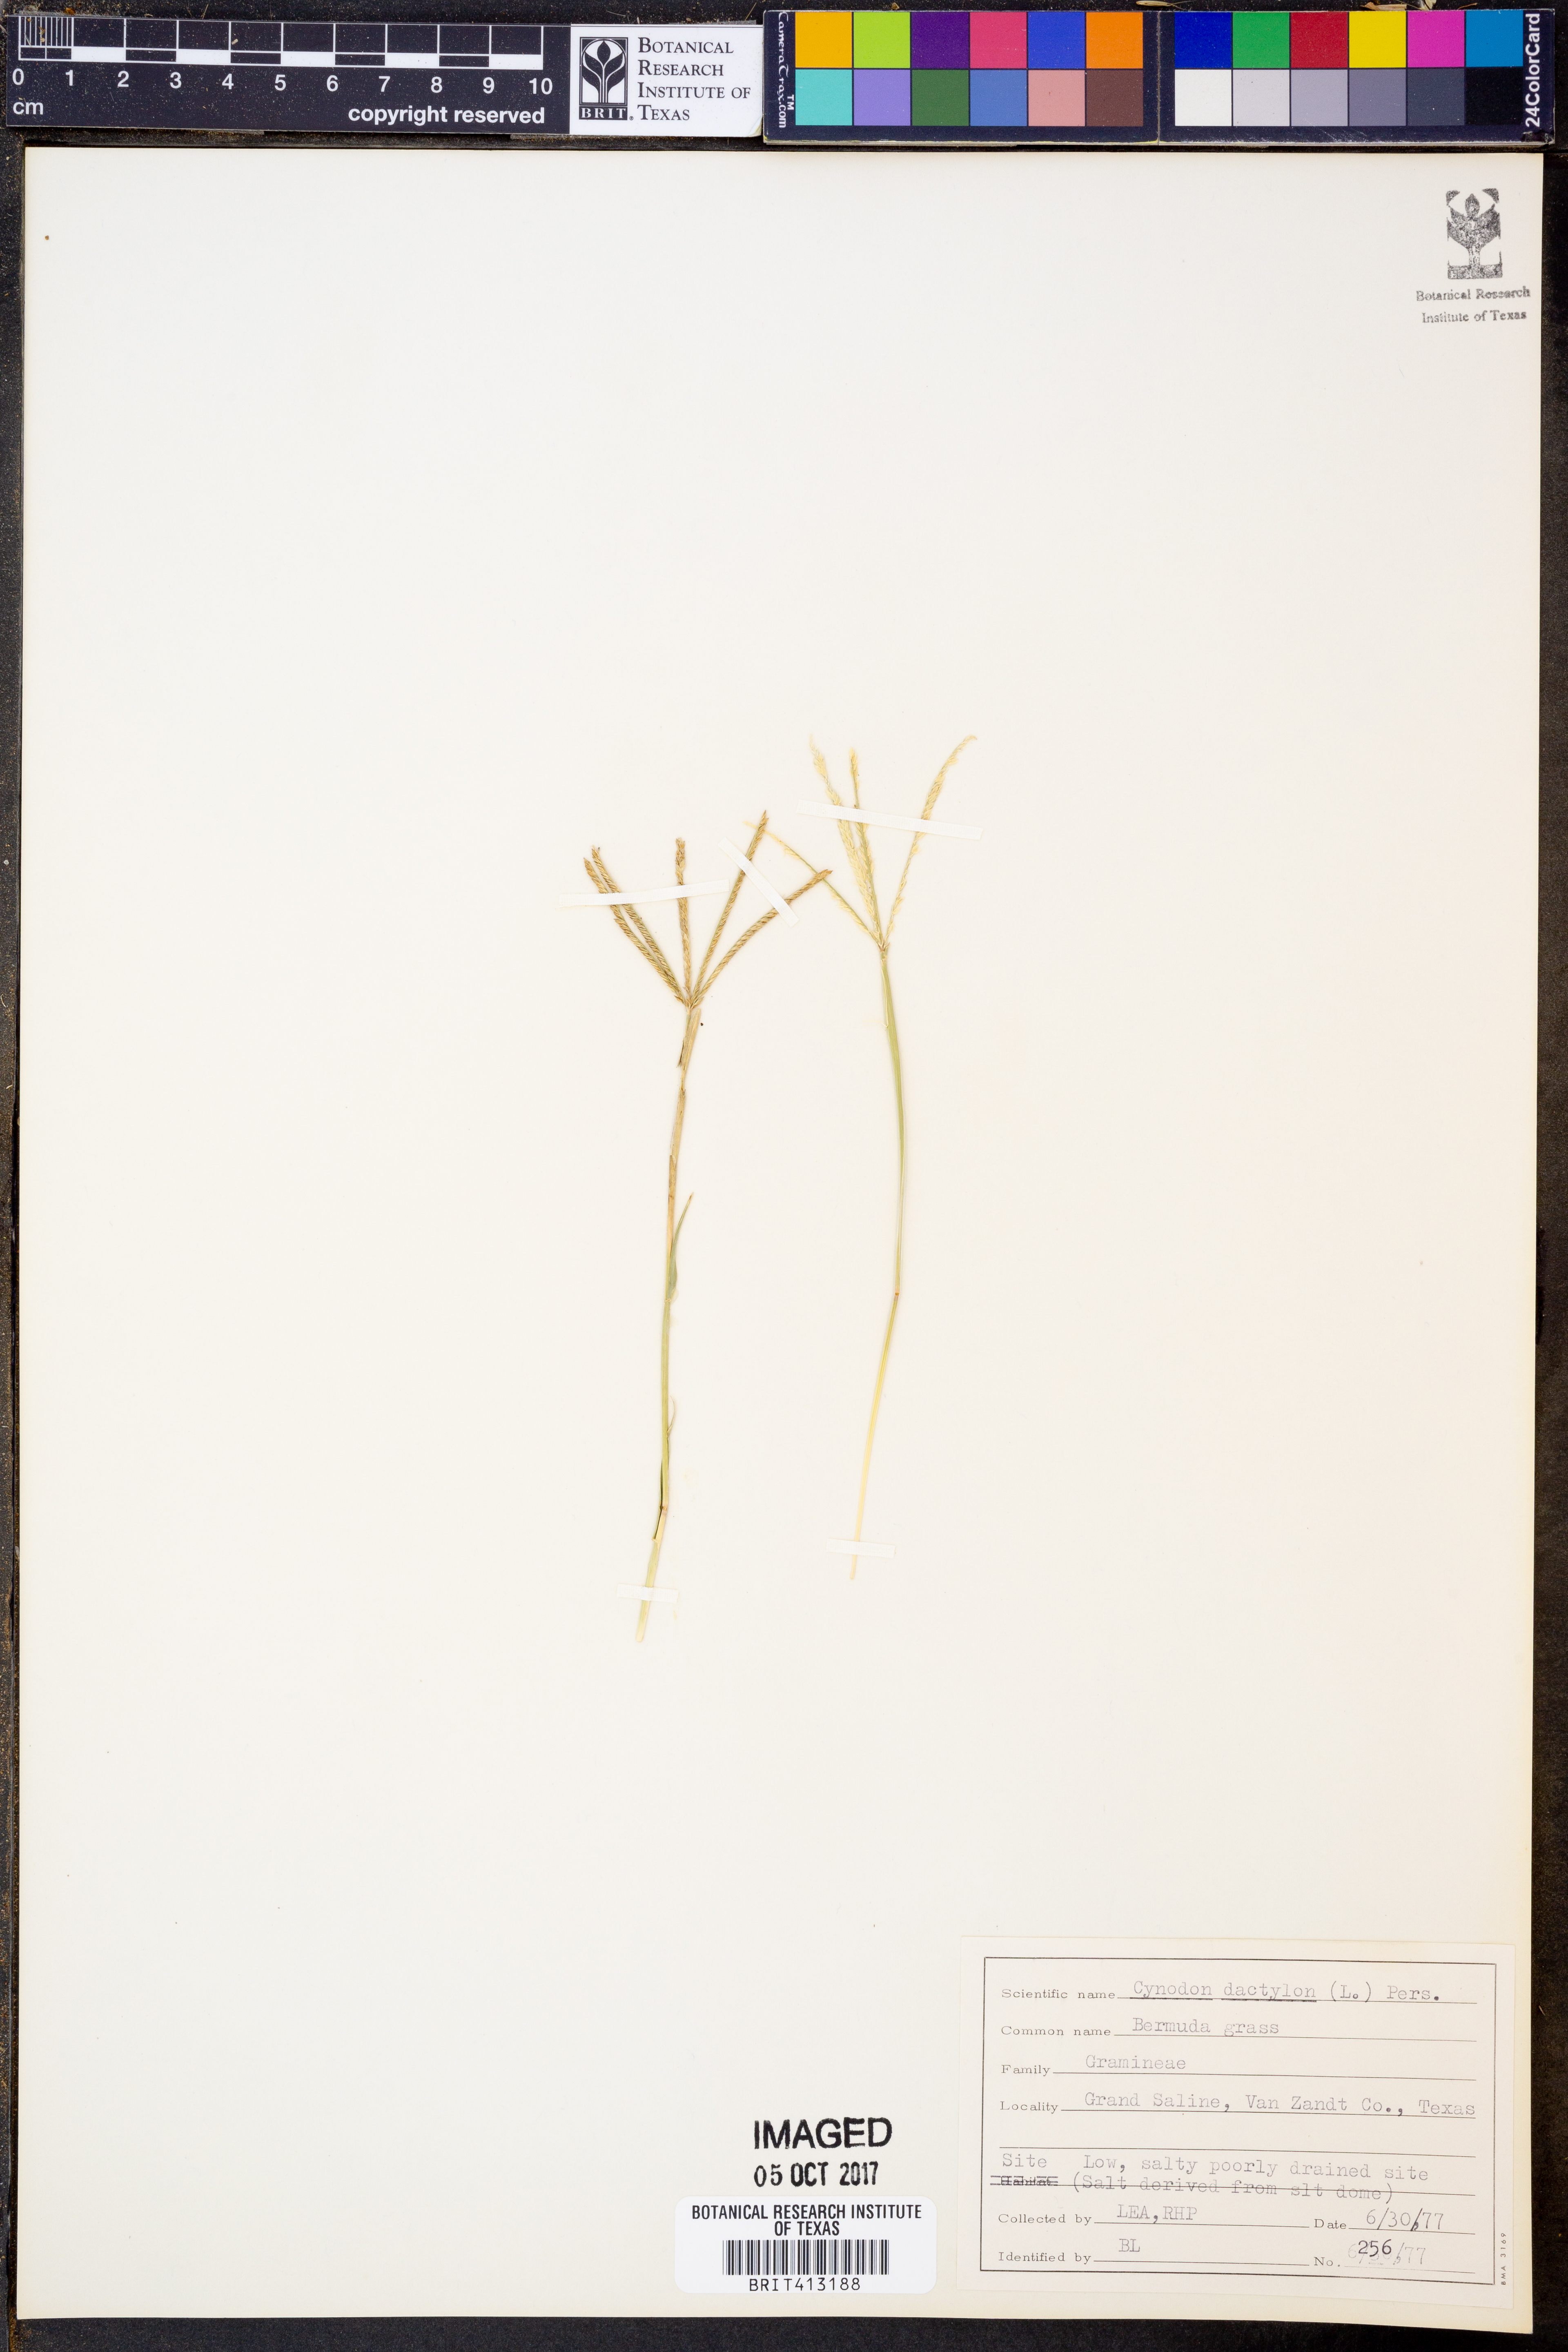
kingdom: Plantae
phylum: Tracheophyta
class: Liliopsida
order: Poales
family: Poaceae
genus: Cynodon
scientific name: Cynodon dactylon
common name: Bermuda grass
